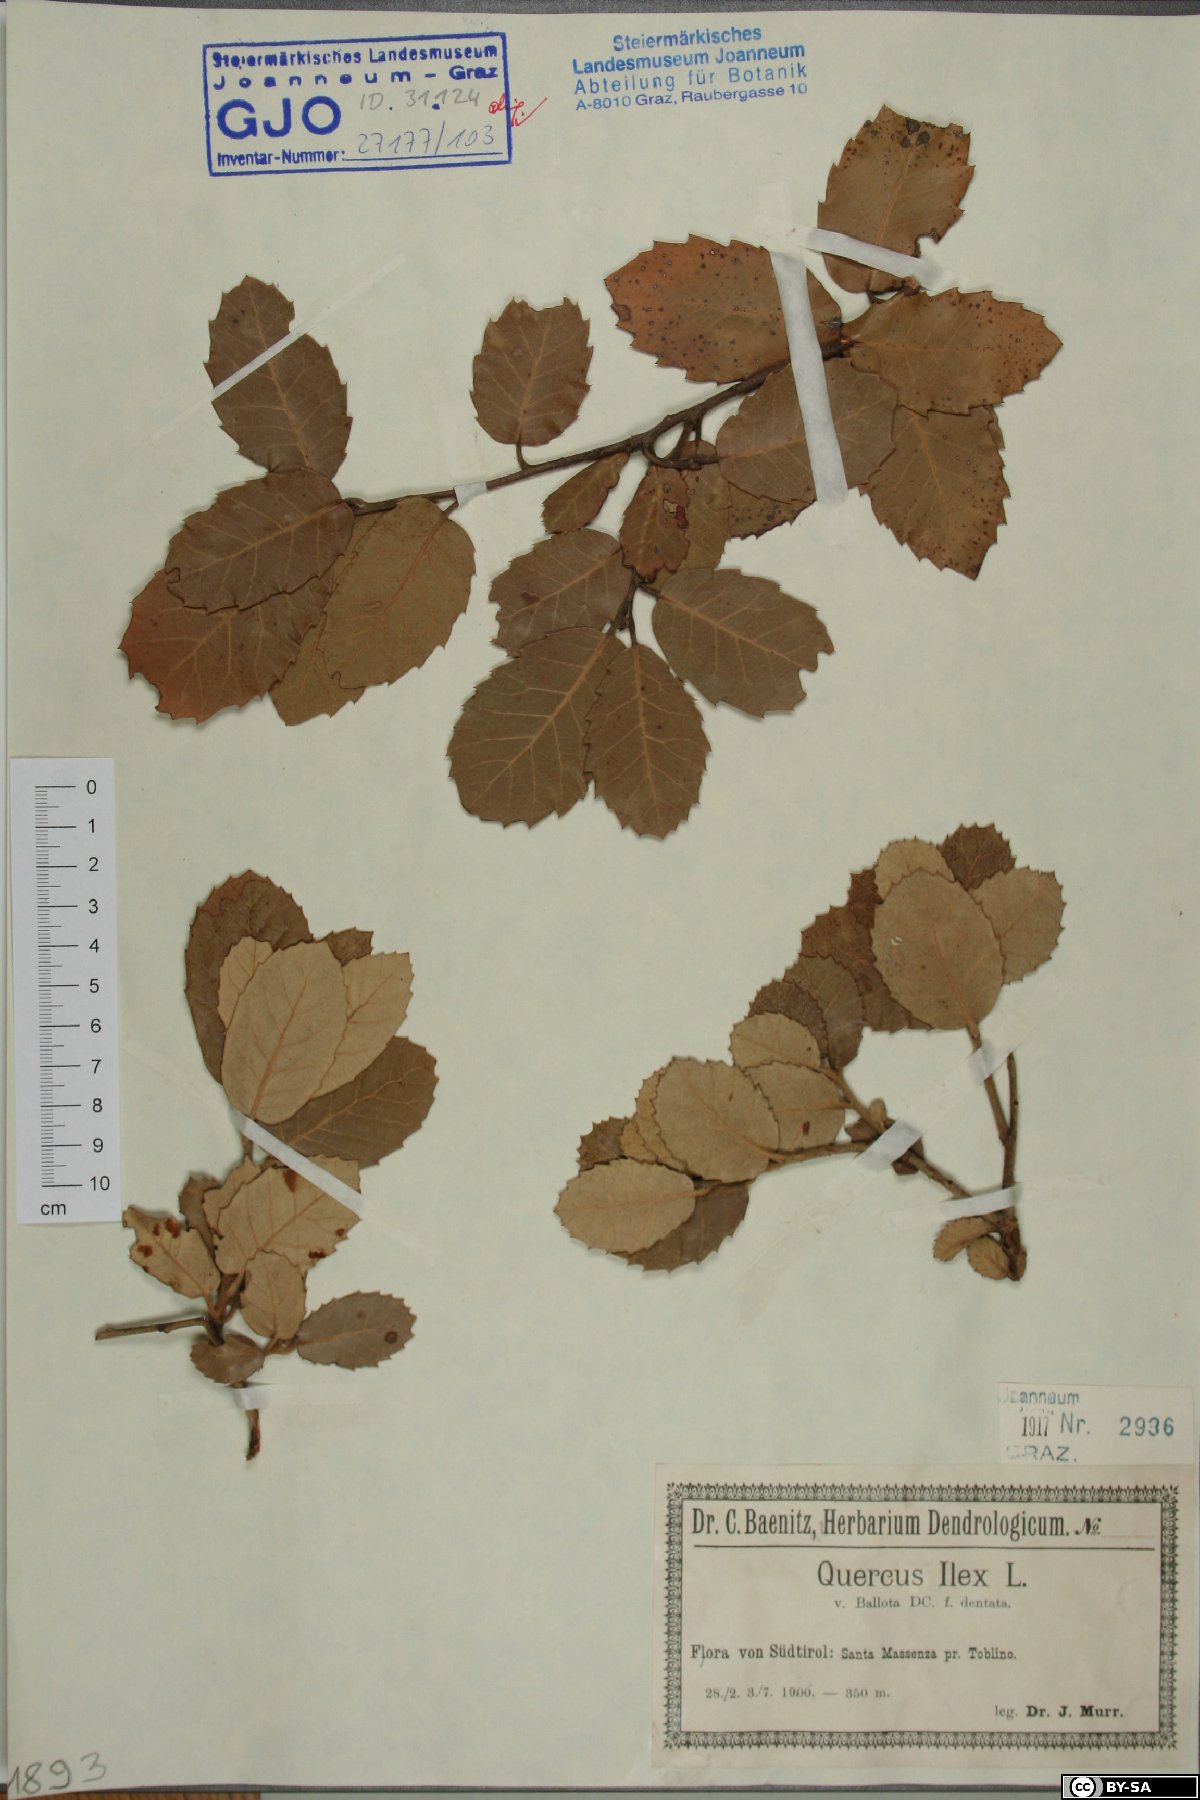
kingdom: Plantae
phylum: Tracheophyta
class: Magnoliopsida
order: Fagales
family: Fagaceae
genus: Quercus
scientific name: Quercus ilex
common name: Evergreen oak
